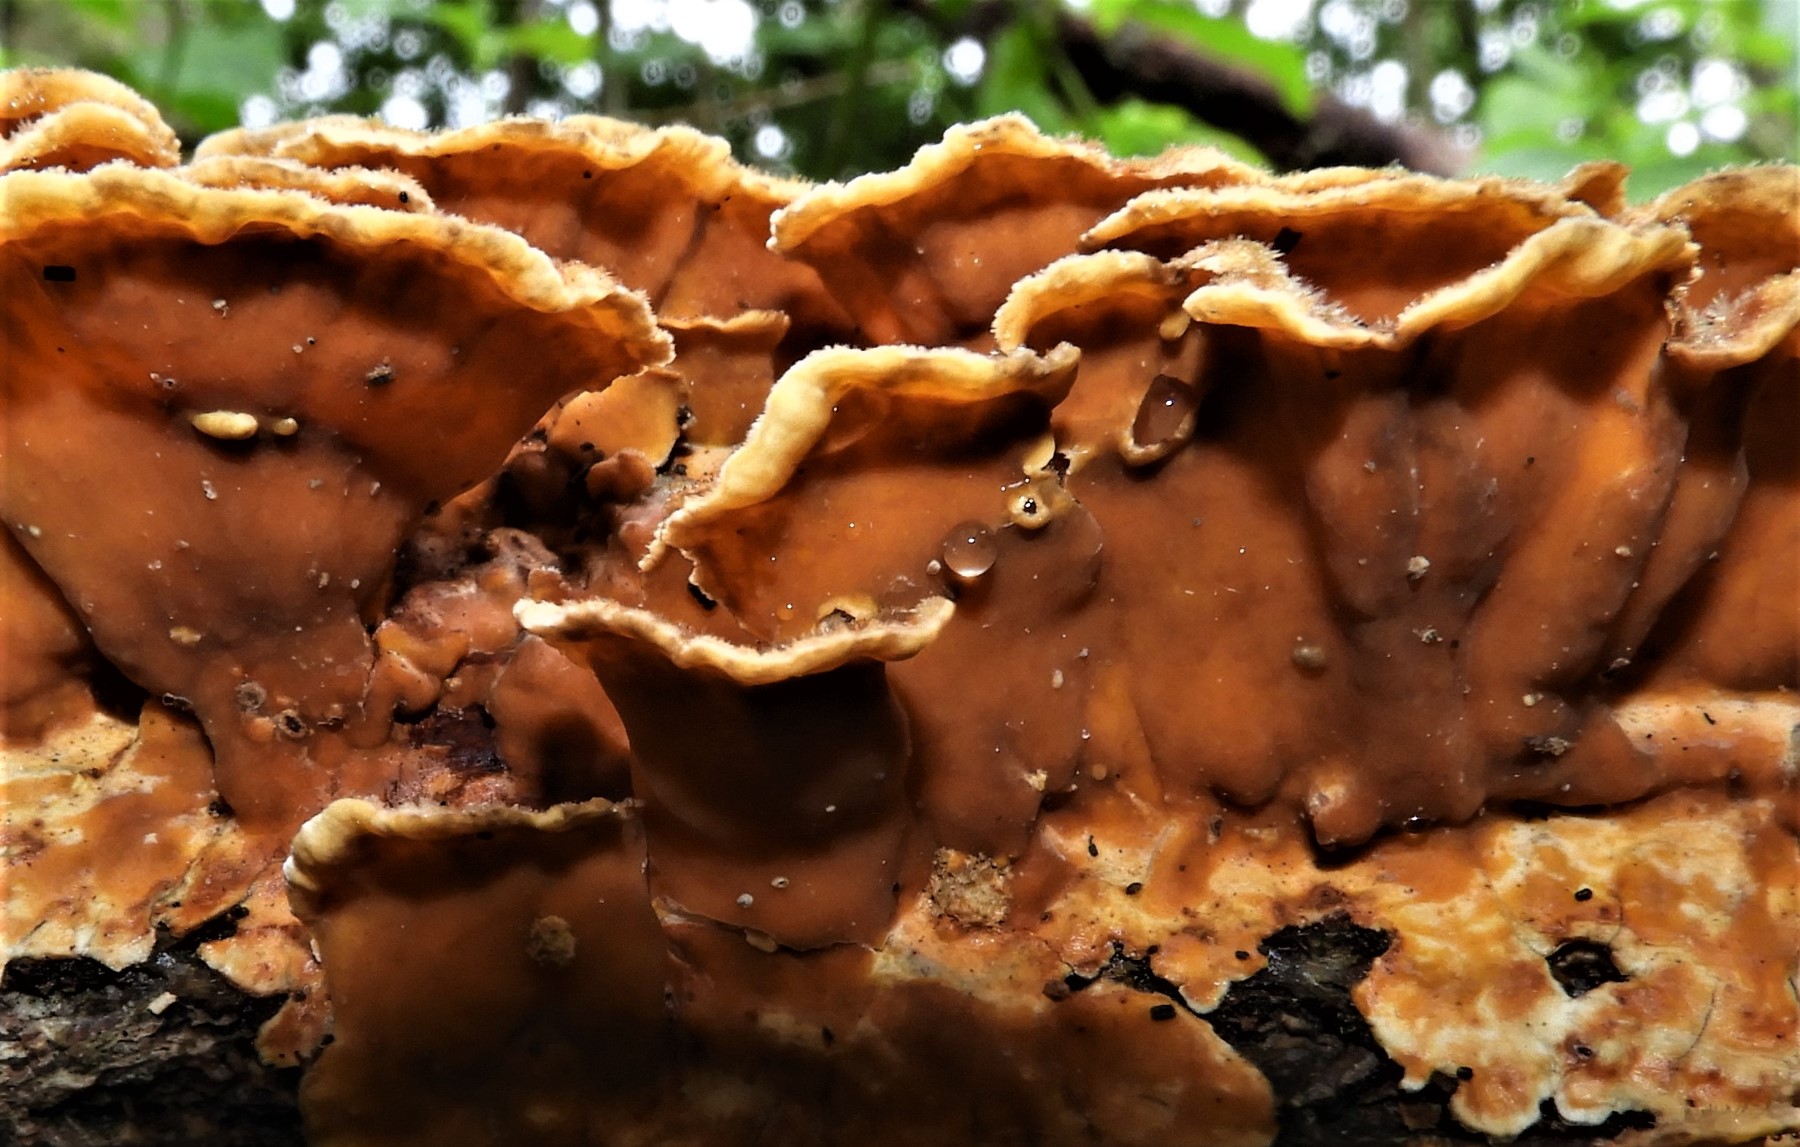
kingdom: Fungi
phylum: Basidiomycota
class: Agaricomycetes
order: Russulales
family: Stereaceae
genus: Stereum
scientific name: Stereum hirsutum
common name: håret lædersvamp
